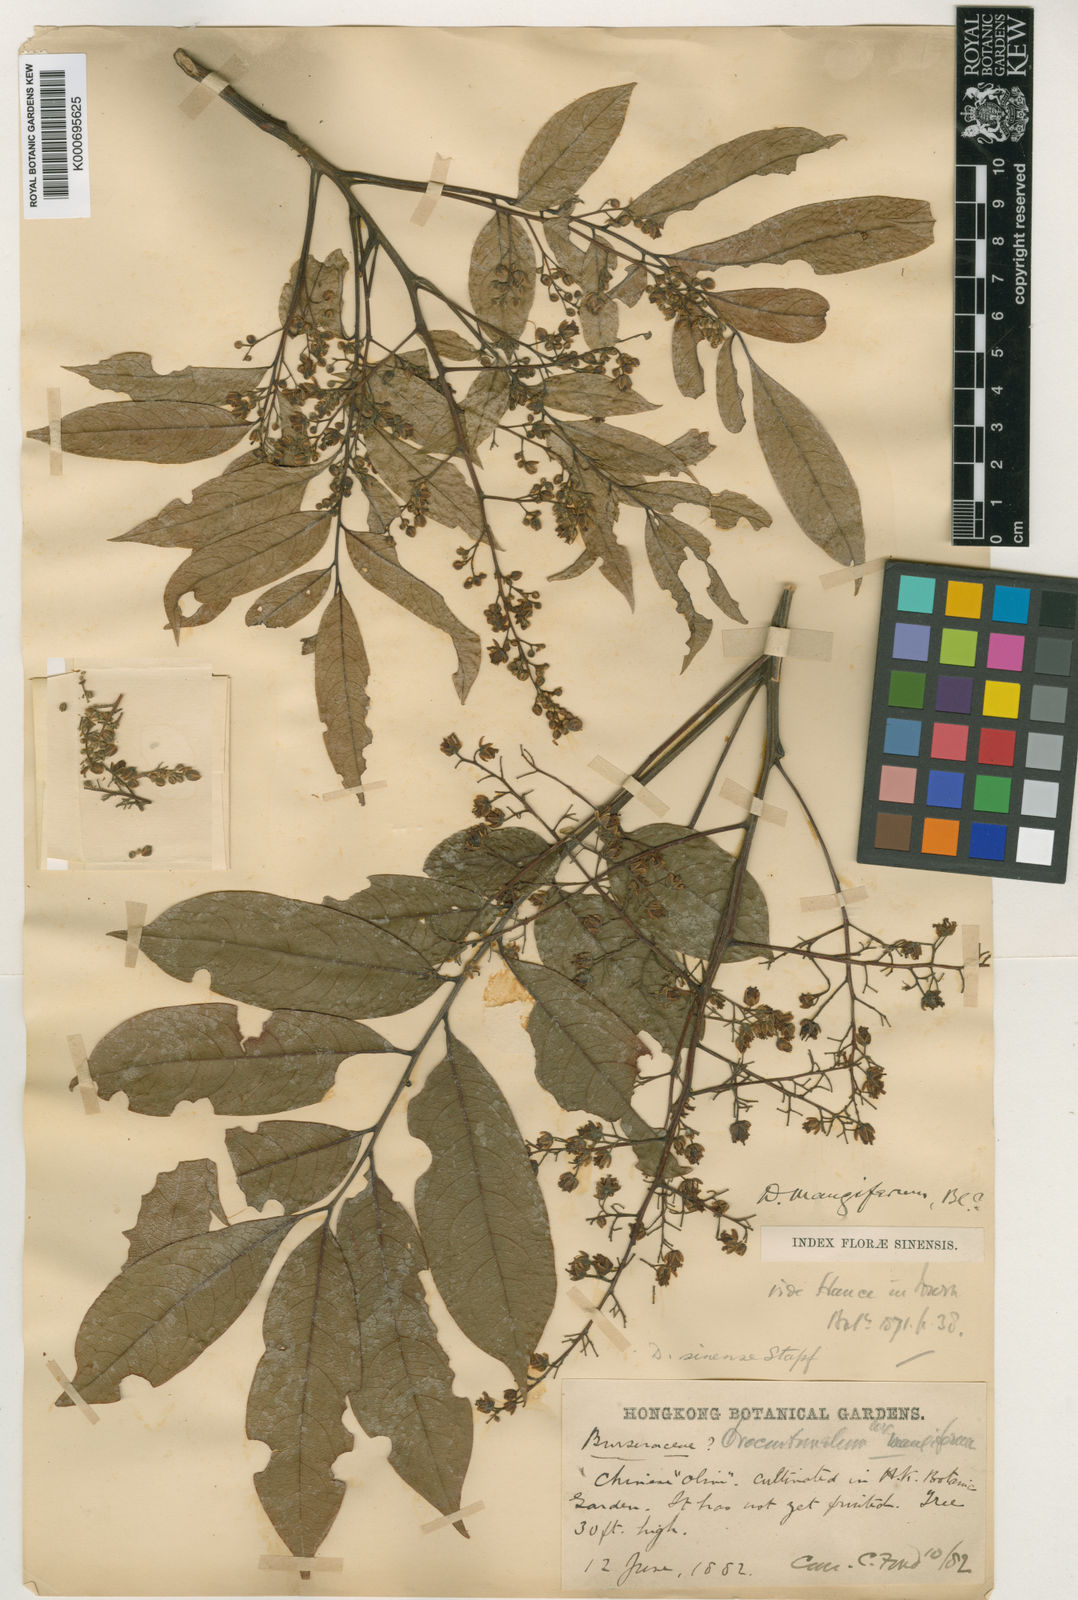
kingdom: Plantae
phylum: Tracheophyta
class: Magnoliopsida
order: Sapindales
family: Anacardiaceae
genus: Dracontomelon
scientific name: Dracontomelon duperreanum
